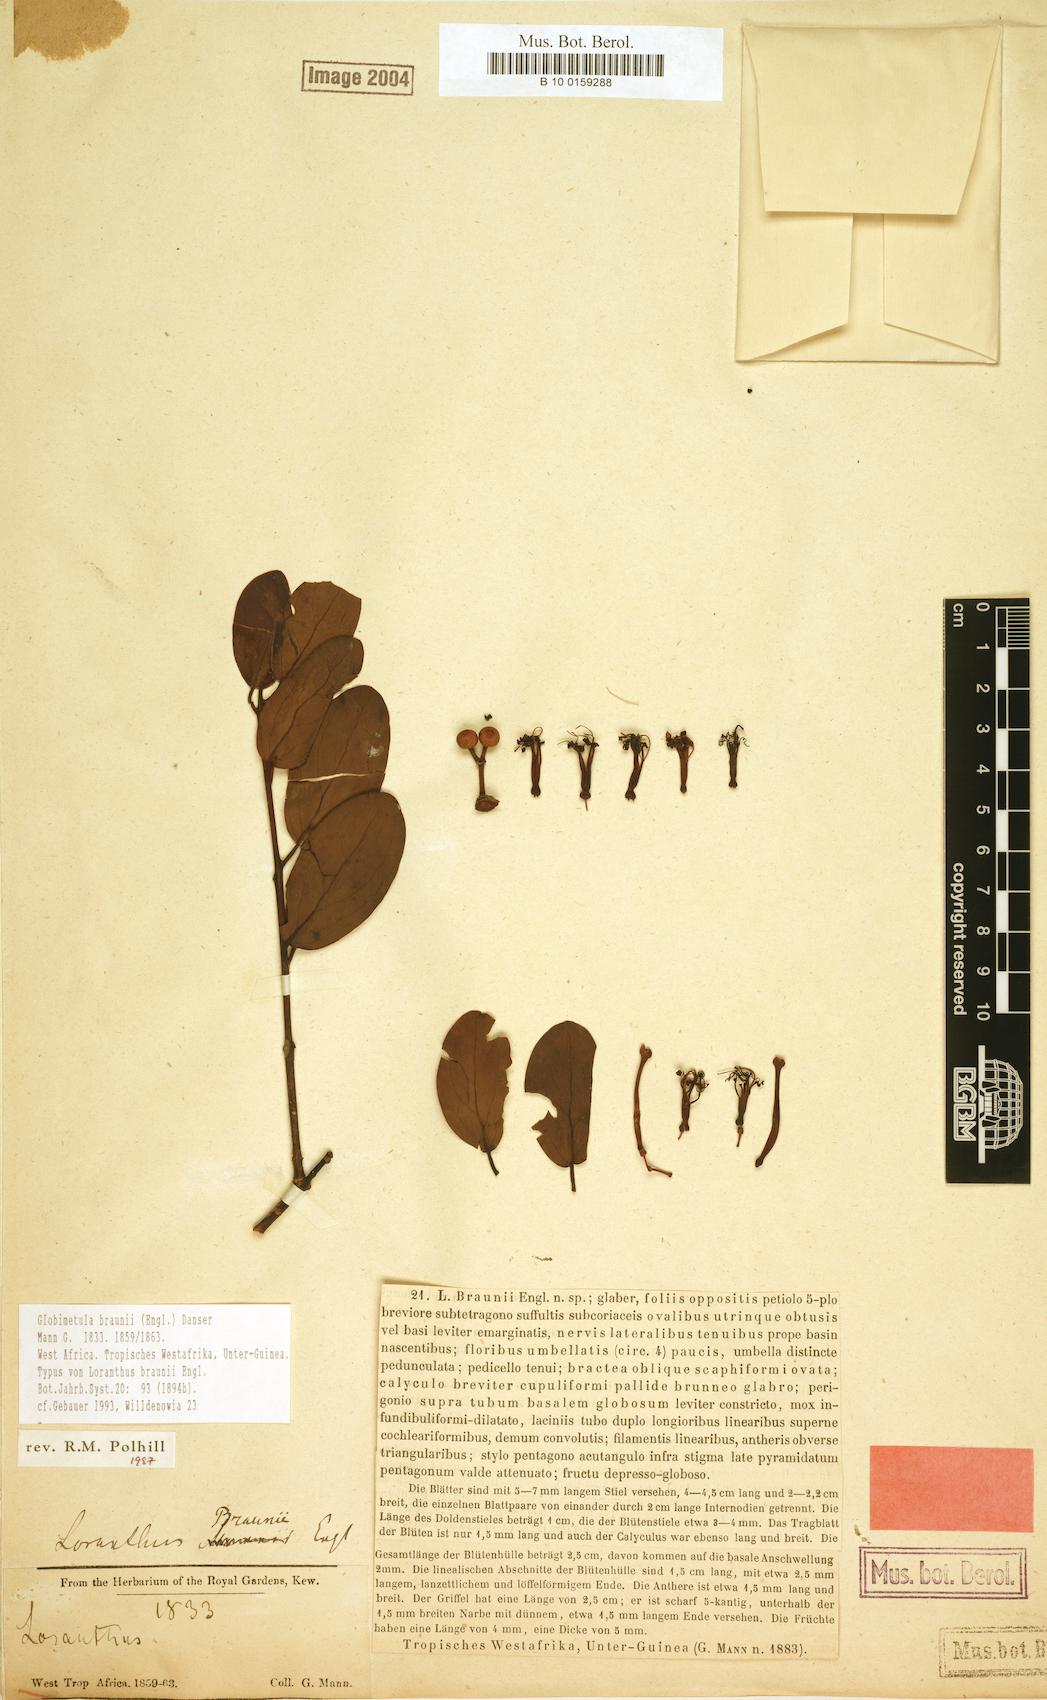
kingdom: Plantae
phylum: Tracheophyta
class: Magnoliopsida
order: Santalales
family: Loranthaceae
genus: Globimetula
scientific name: Globimetula braunii
